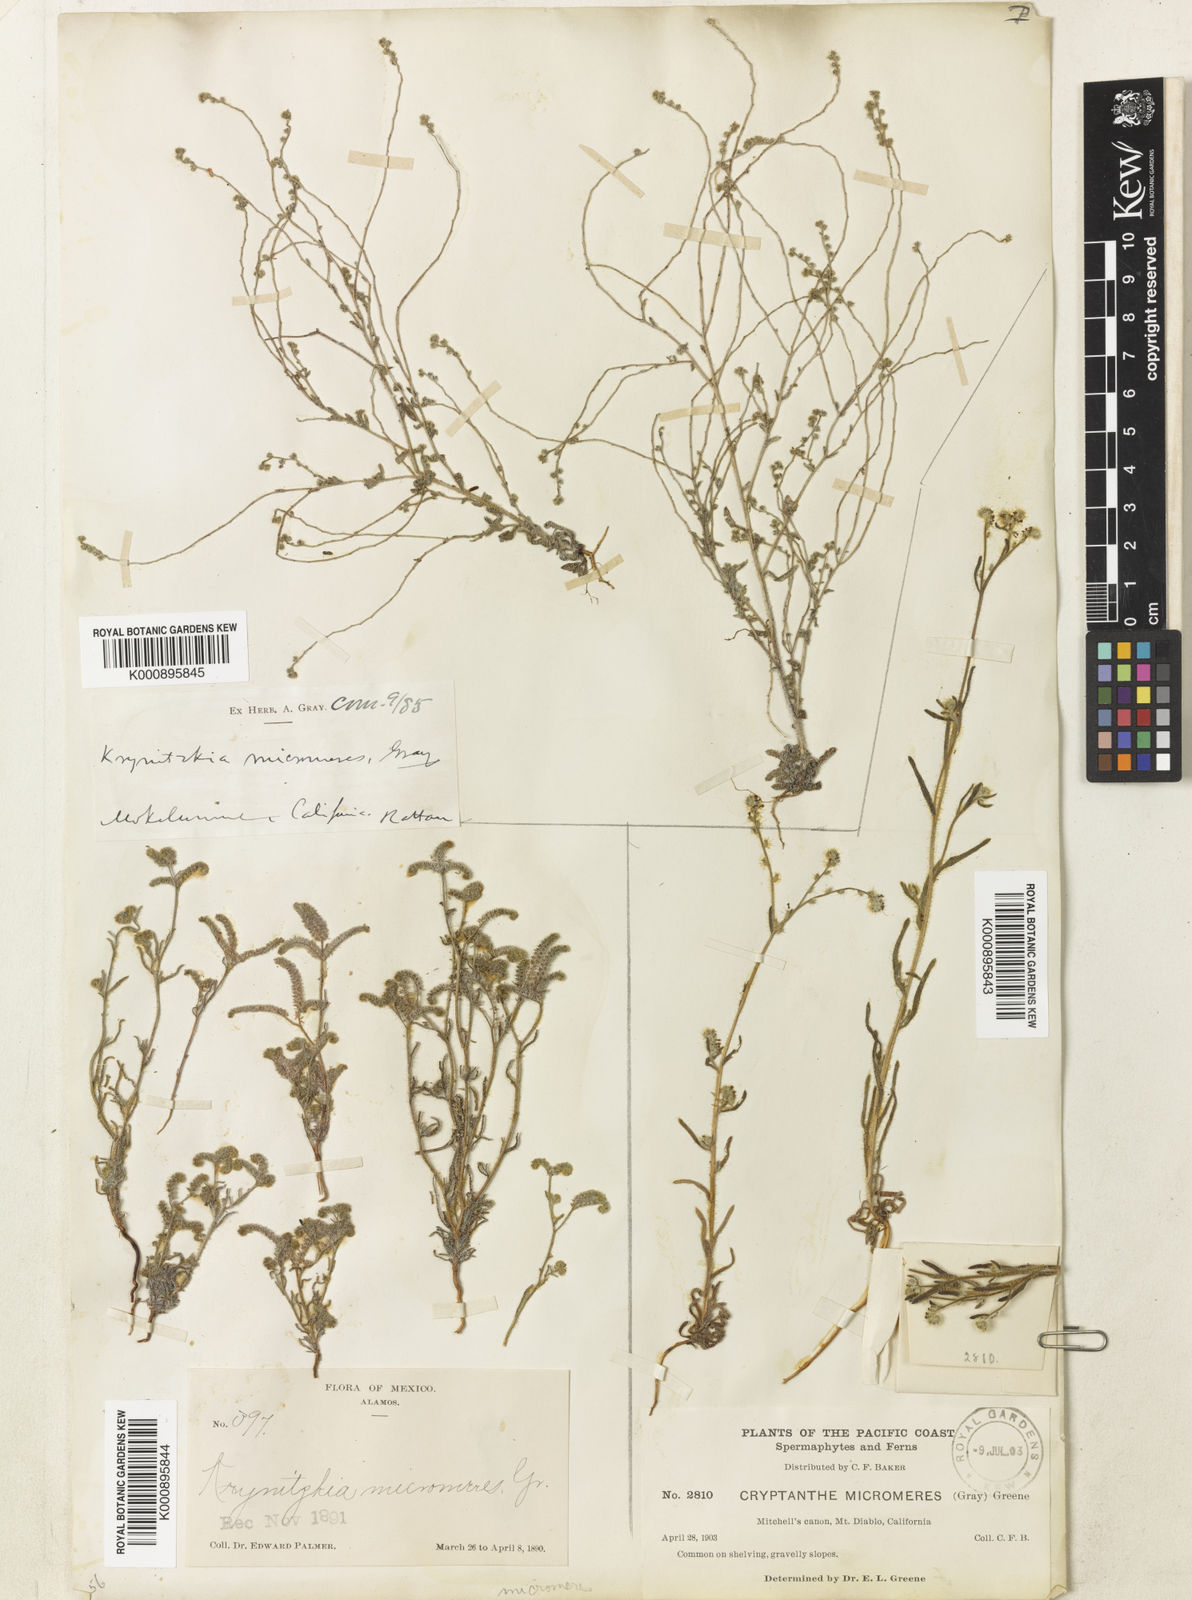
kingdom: Plantae
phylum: Tracheophyta
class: Magnoliopsida
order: Boraginales
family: Boraginaceae
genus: Johnstonella
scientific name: Johnstonella micromeres
